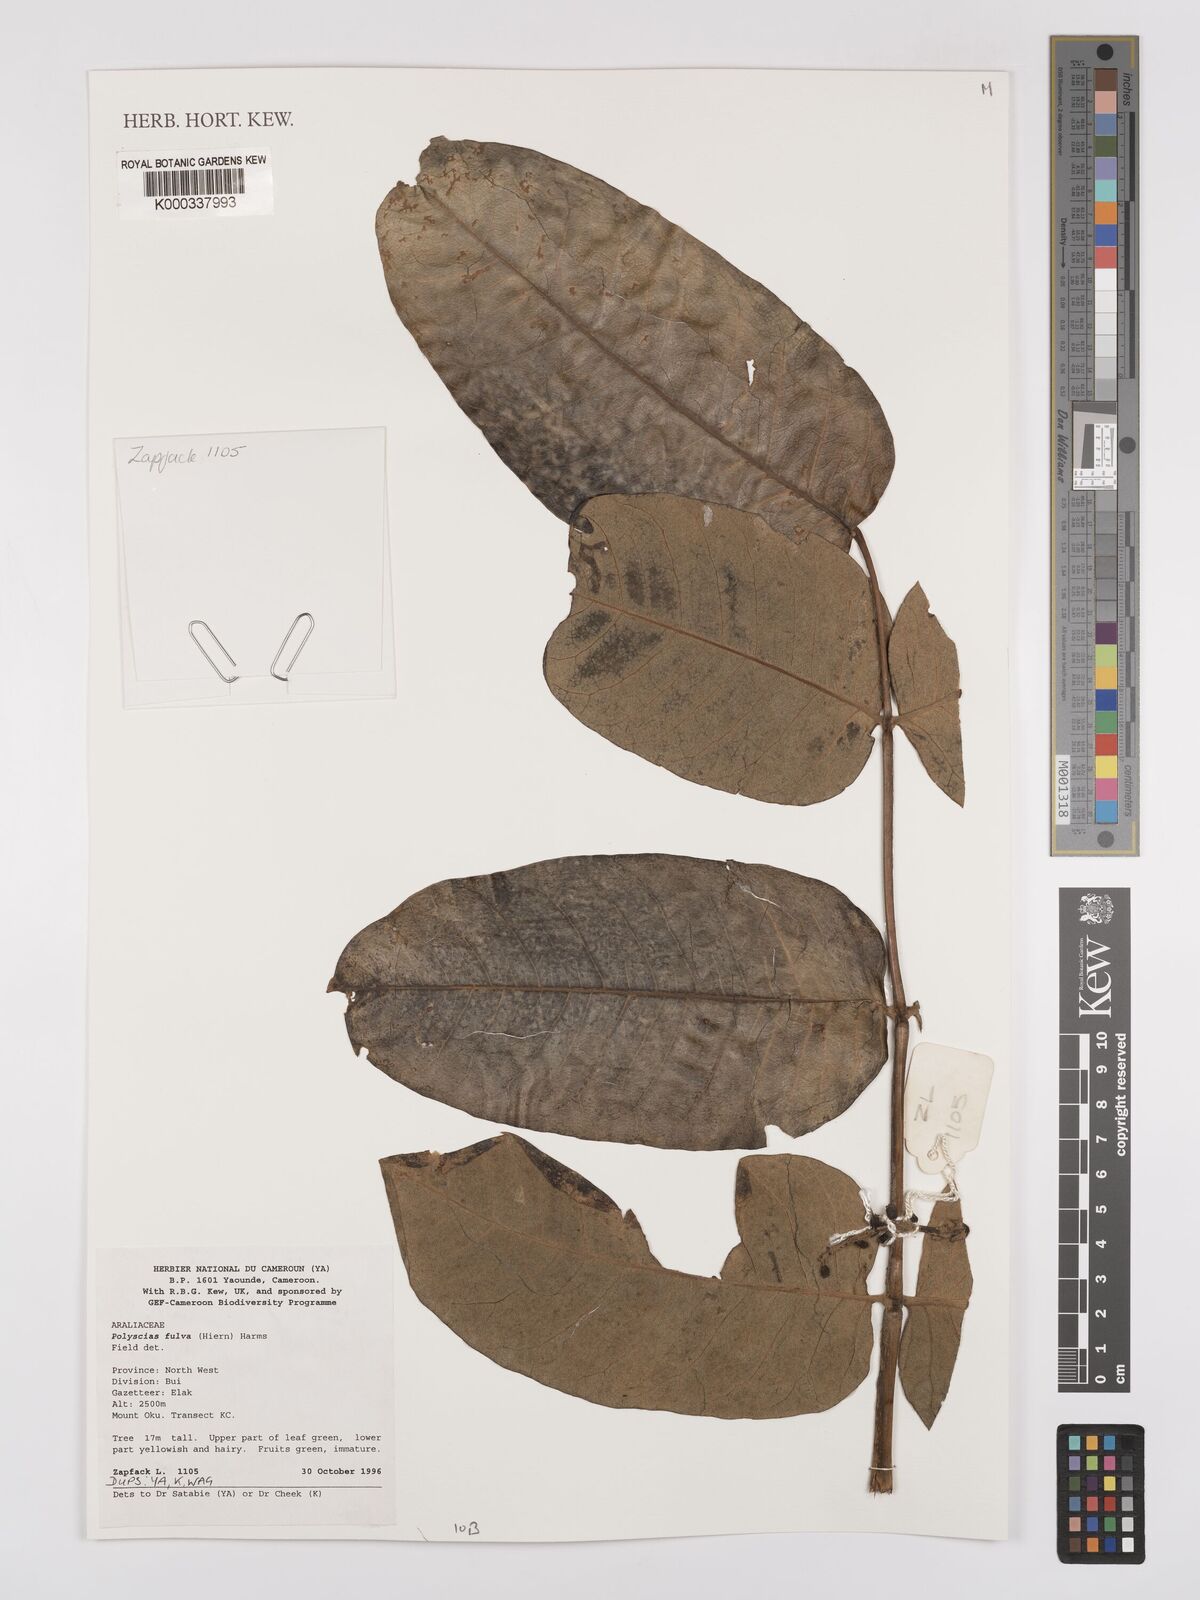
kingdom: Plantae
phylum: Tracheophyta
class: Magnoliopsida
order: Fabales
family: Fabaceae
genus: Crotalaria
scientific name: Crotalaria
